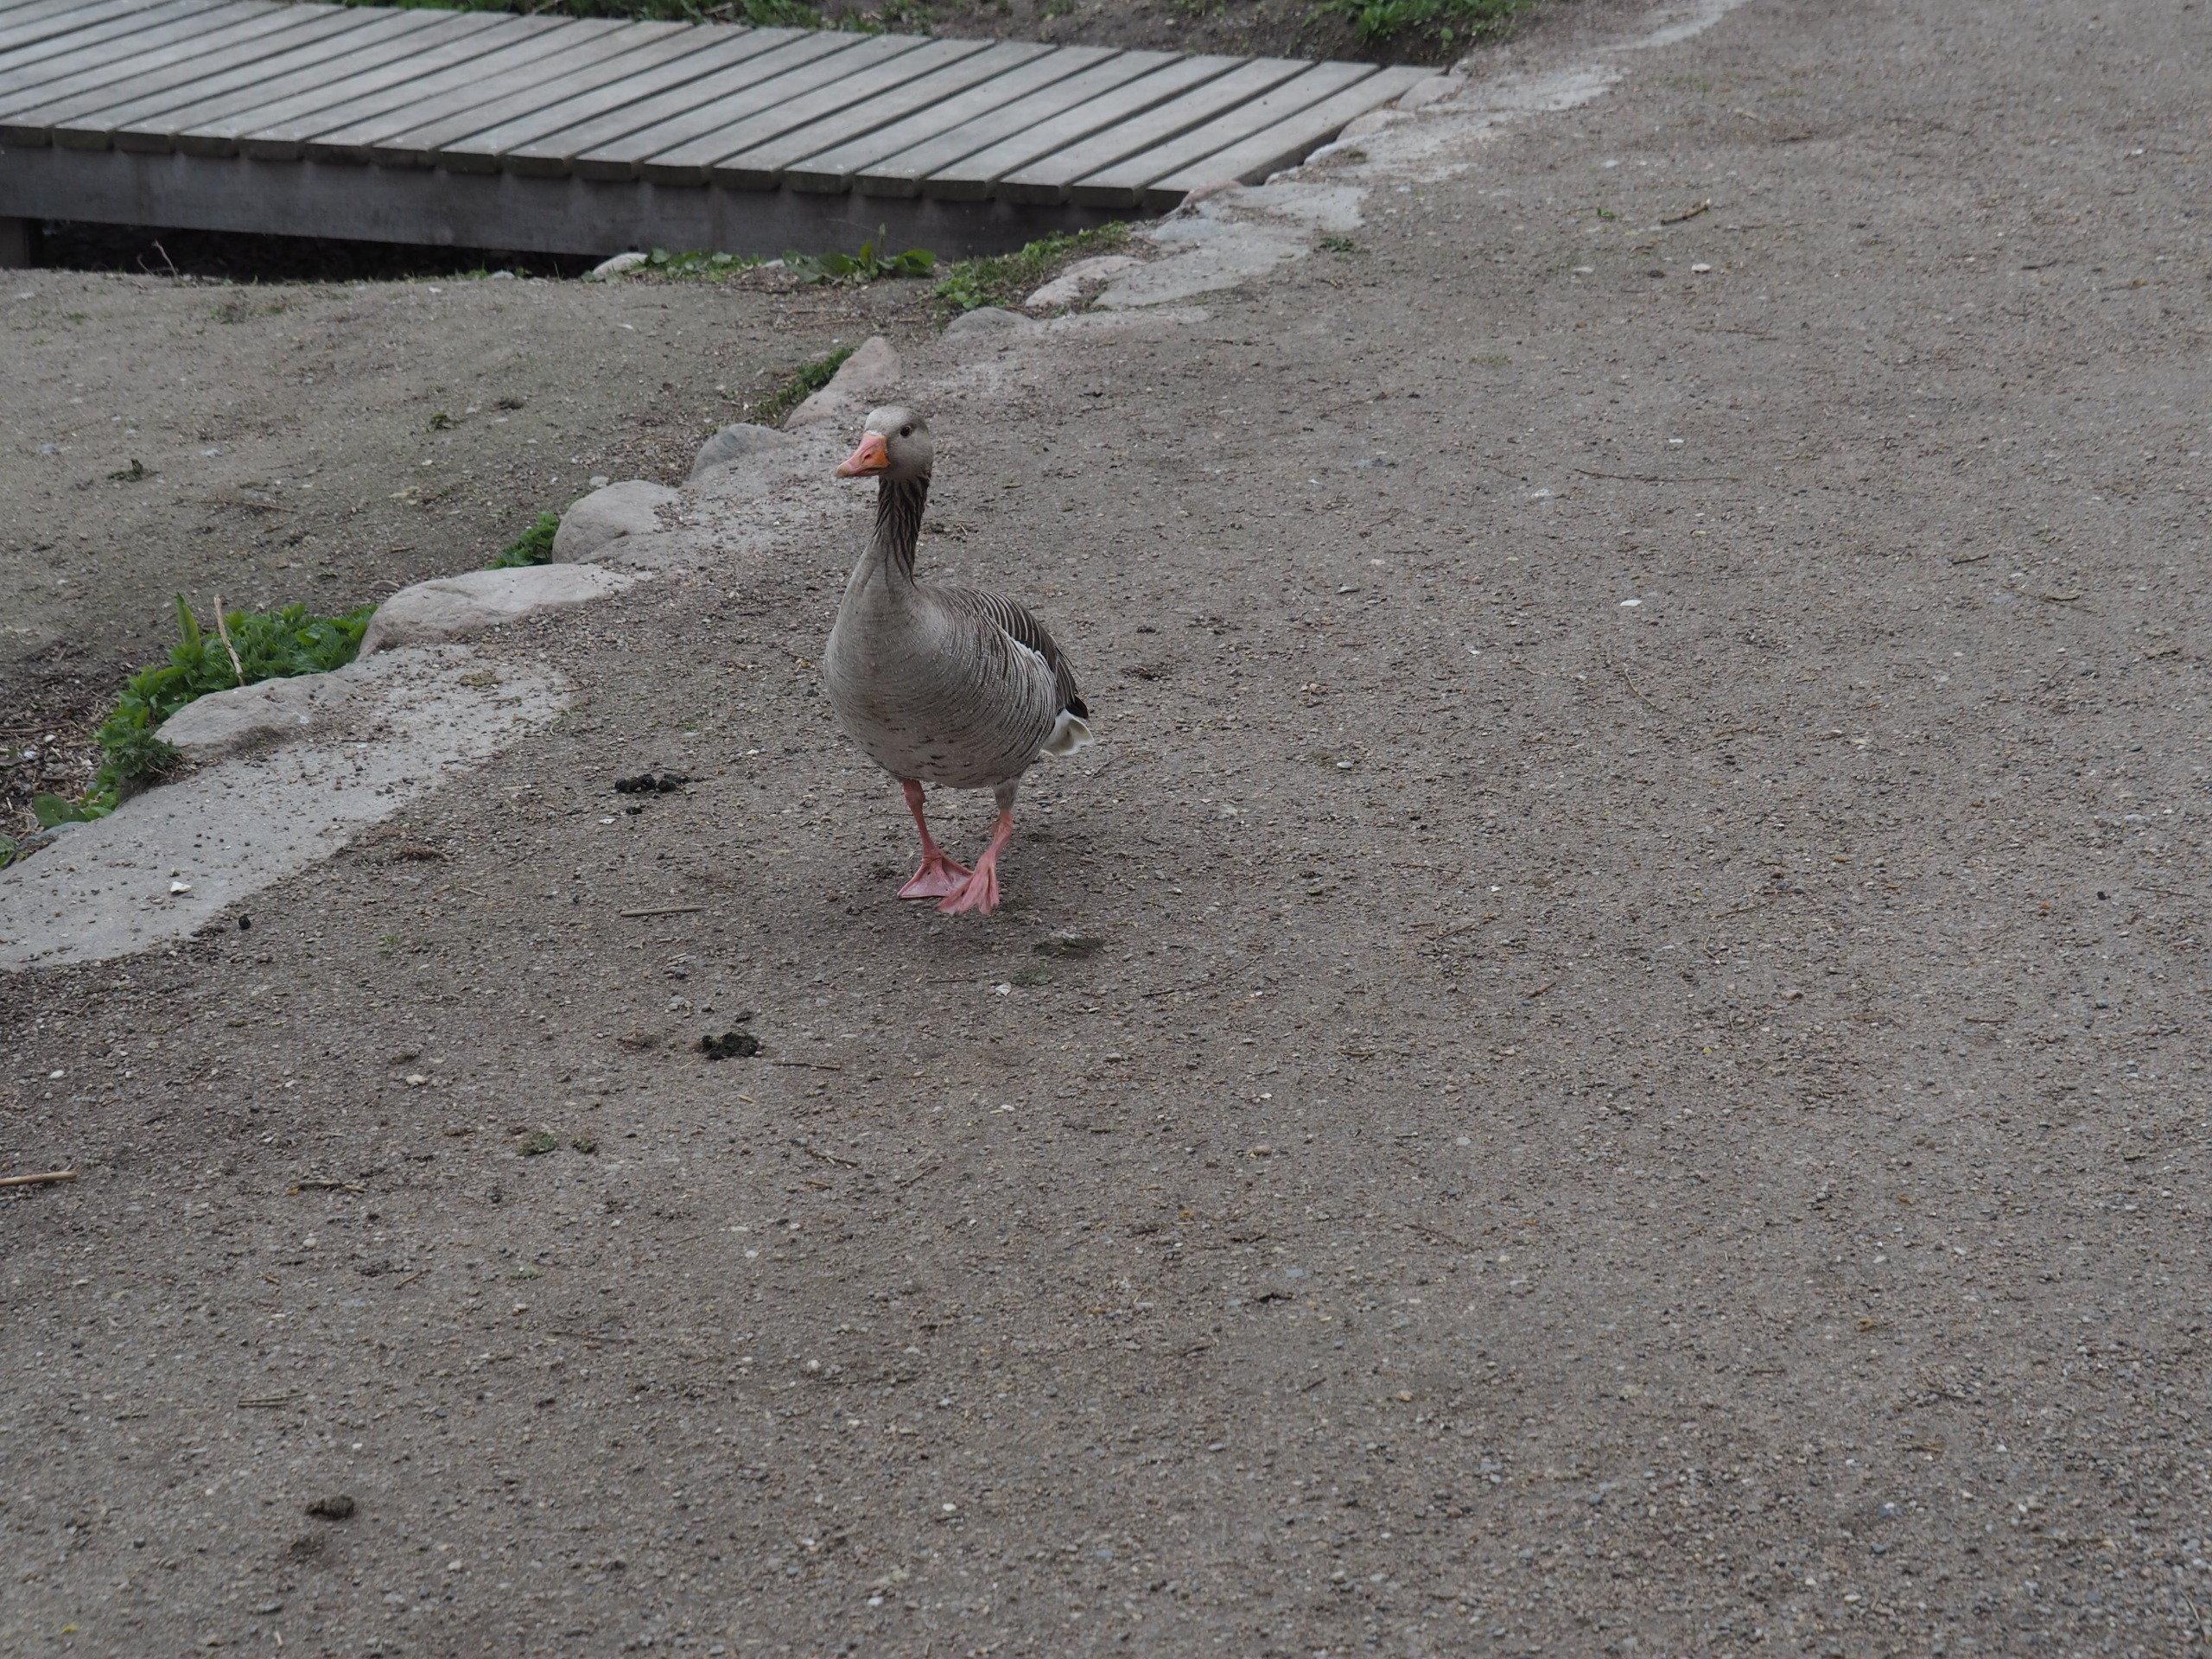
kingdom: Animalia
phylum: Chordata
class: Aves
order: Anseriformes
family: Anatidae
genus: Anser
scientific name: Anser anser
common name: Grågås
